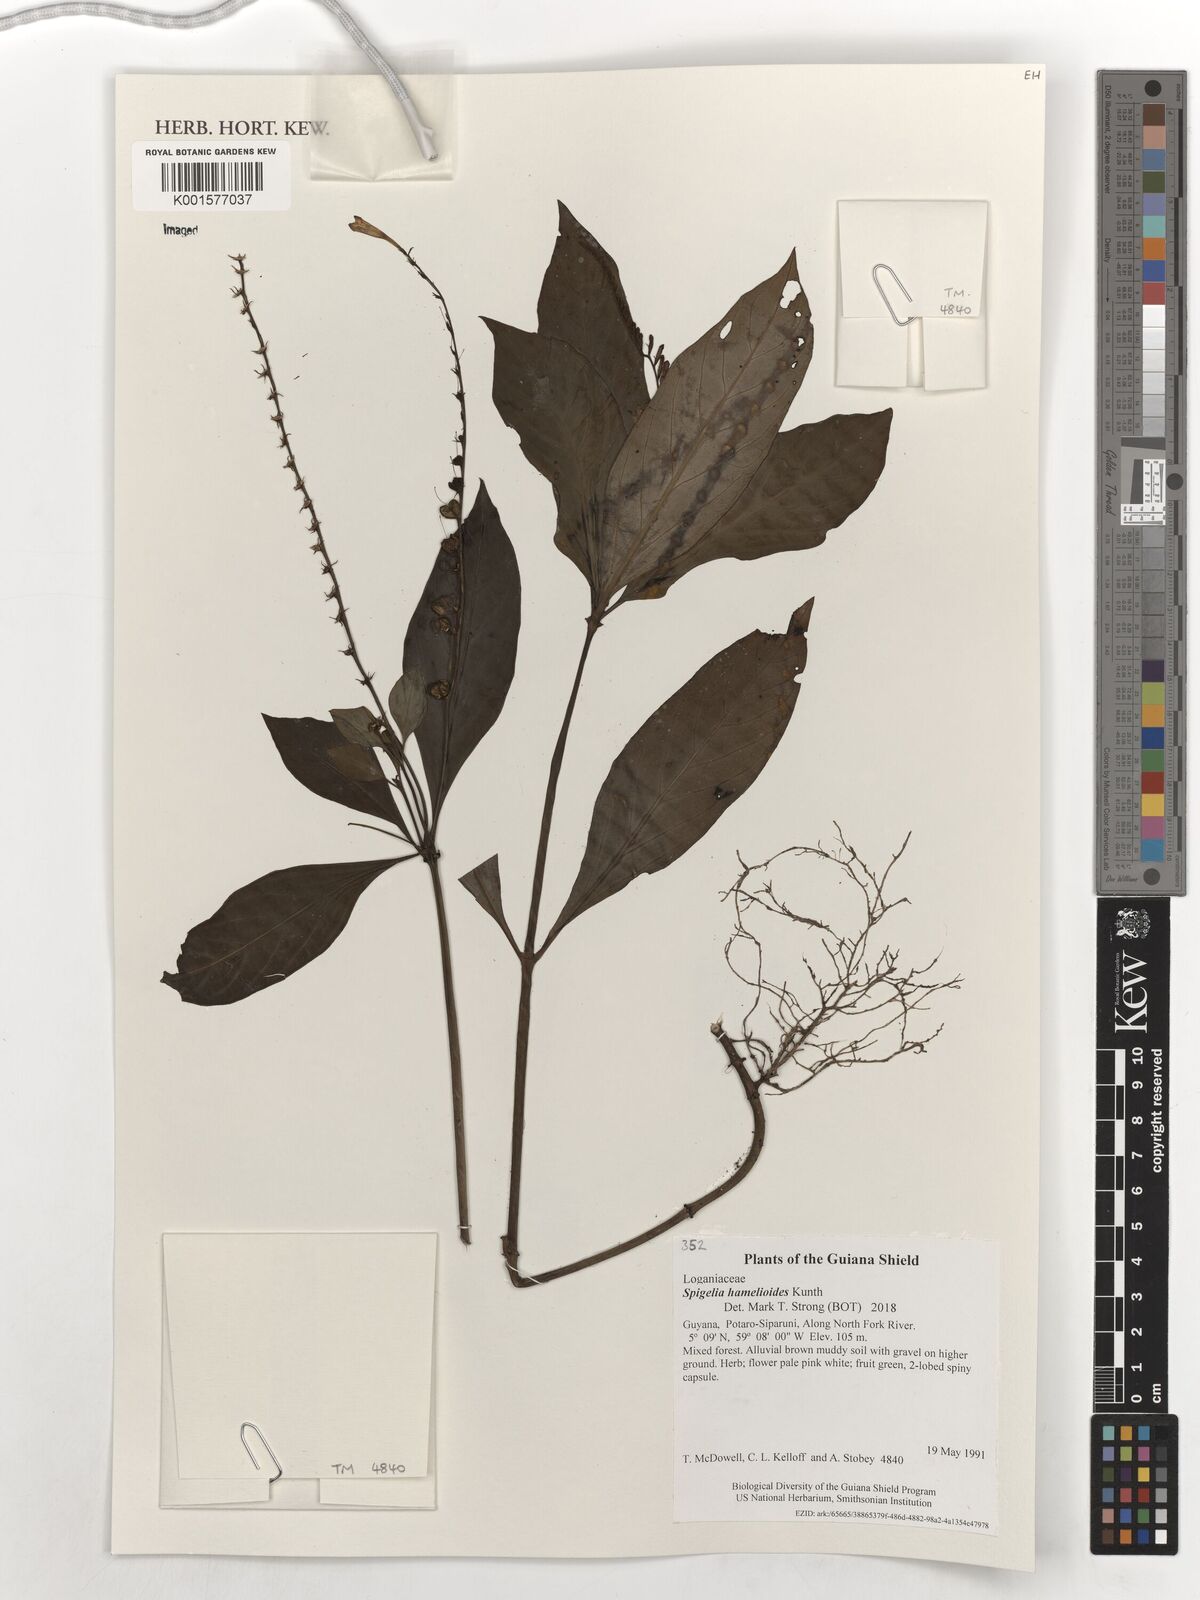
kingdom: Plantae
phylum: Tracheophyta
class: Magnoliopsida
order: Gentianales
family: Loganiaceae
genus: Spigelia
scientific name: Spigelia hamellioides
